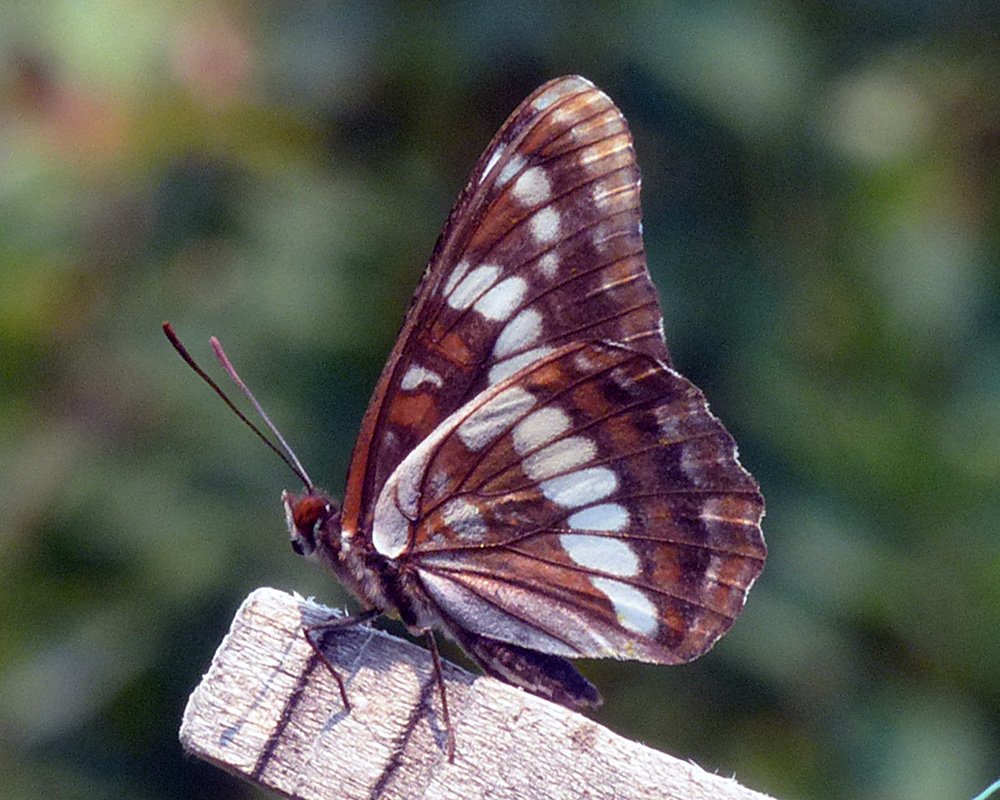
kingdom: Animalia
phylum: Arthropoda
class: Insecta
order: Lepidoptera
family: Nymphalidae
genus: Limenitis
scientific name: Limenitis lorquini
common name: Lorquin's Admiral
